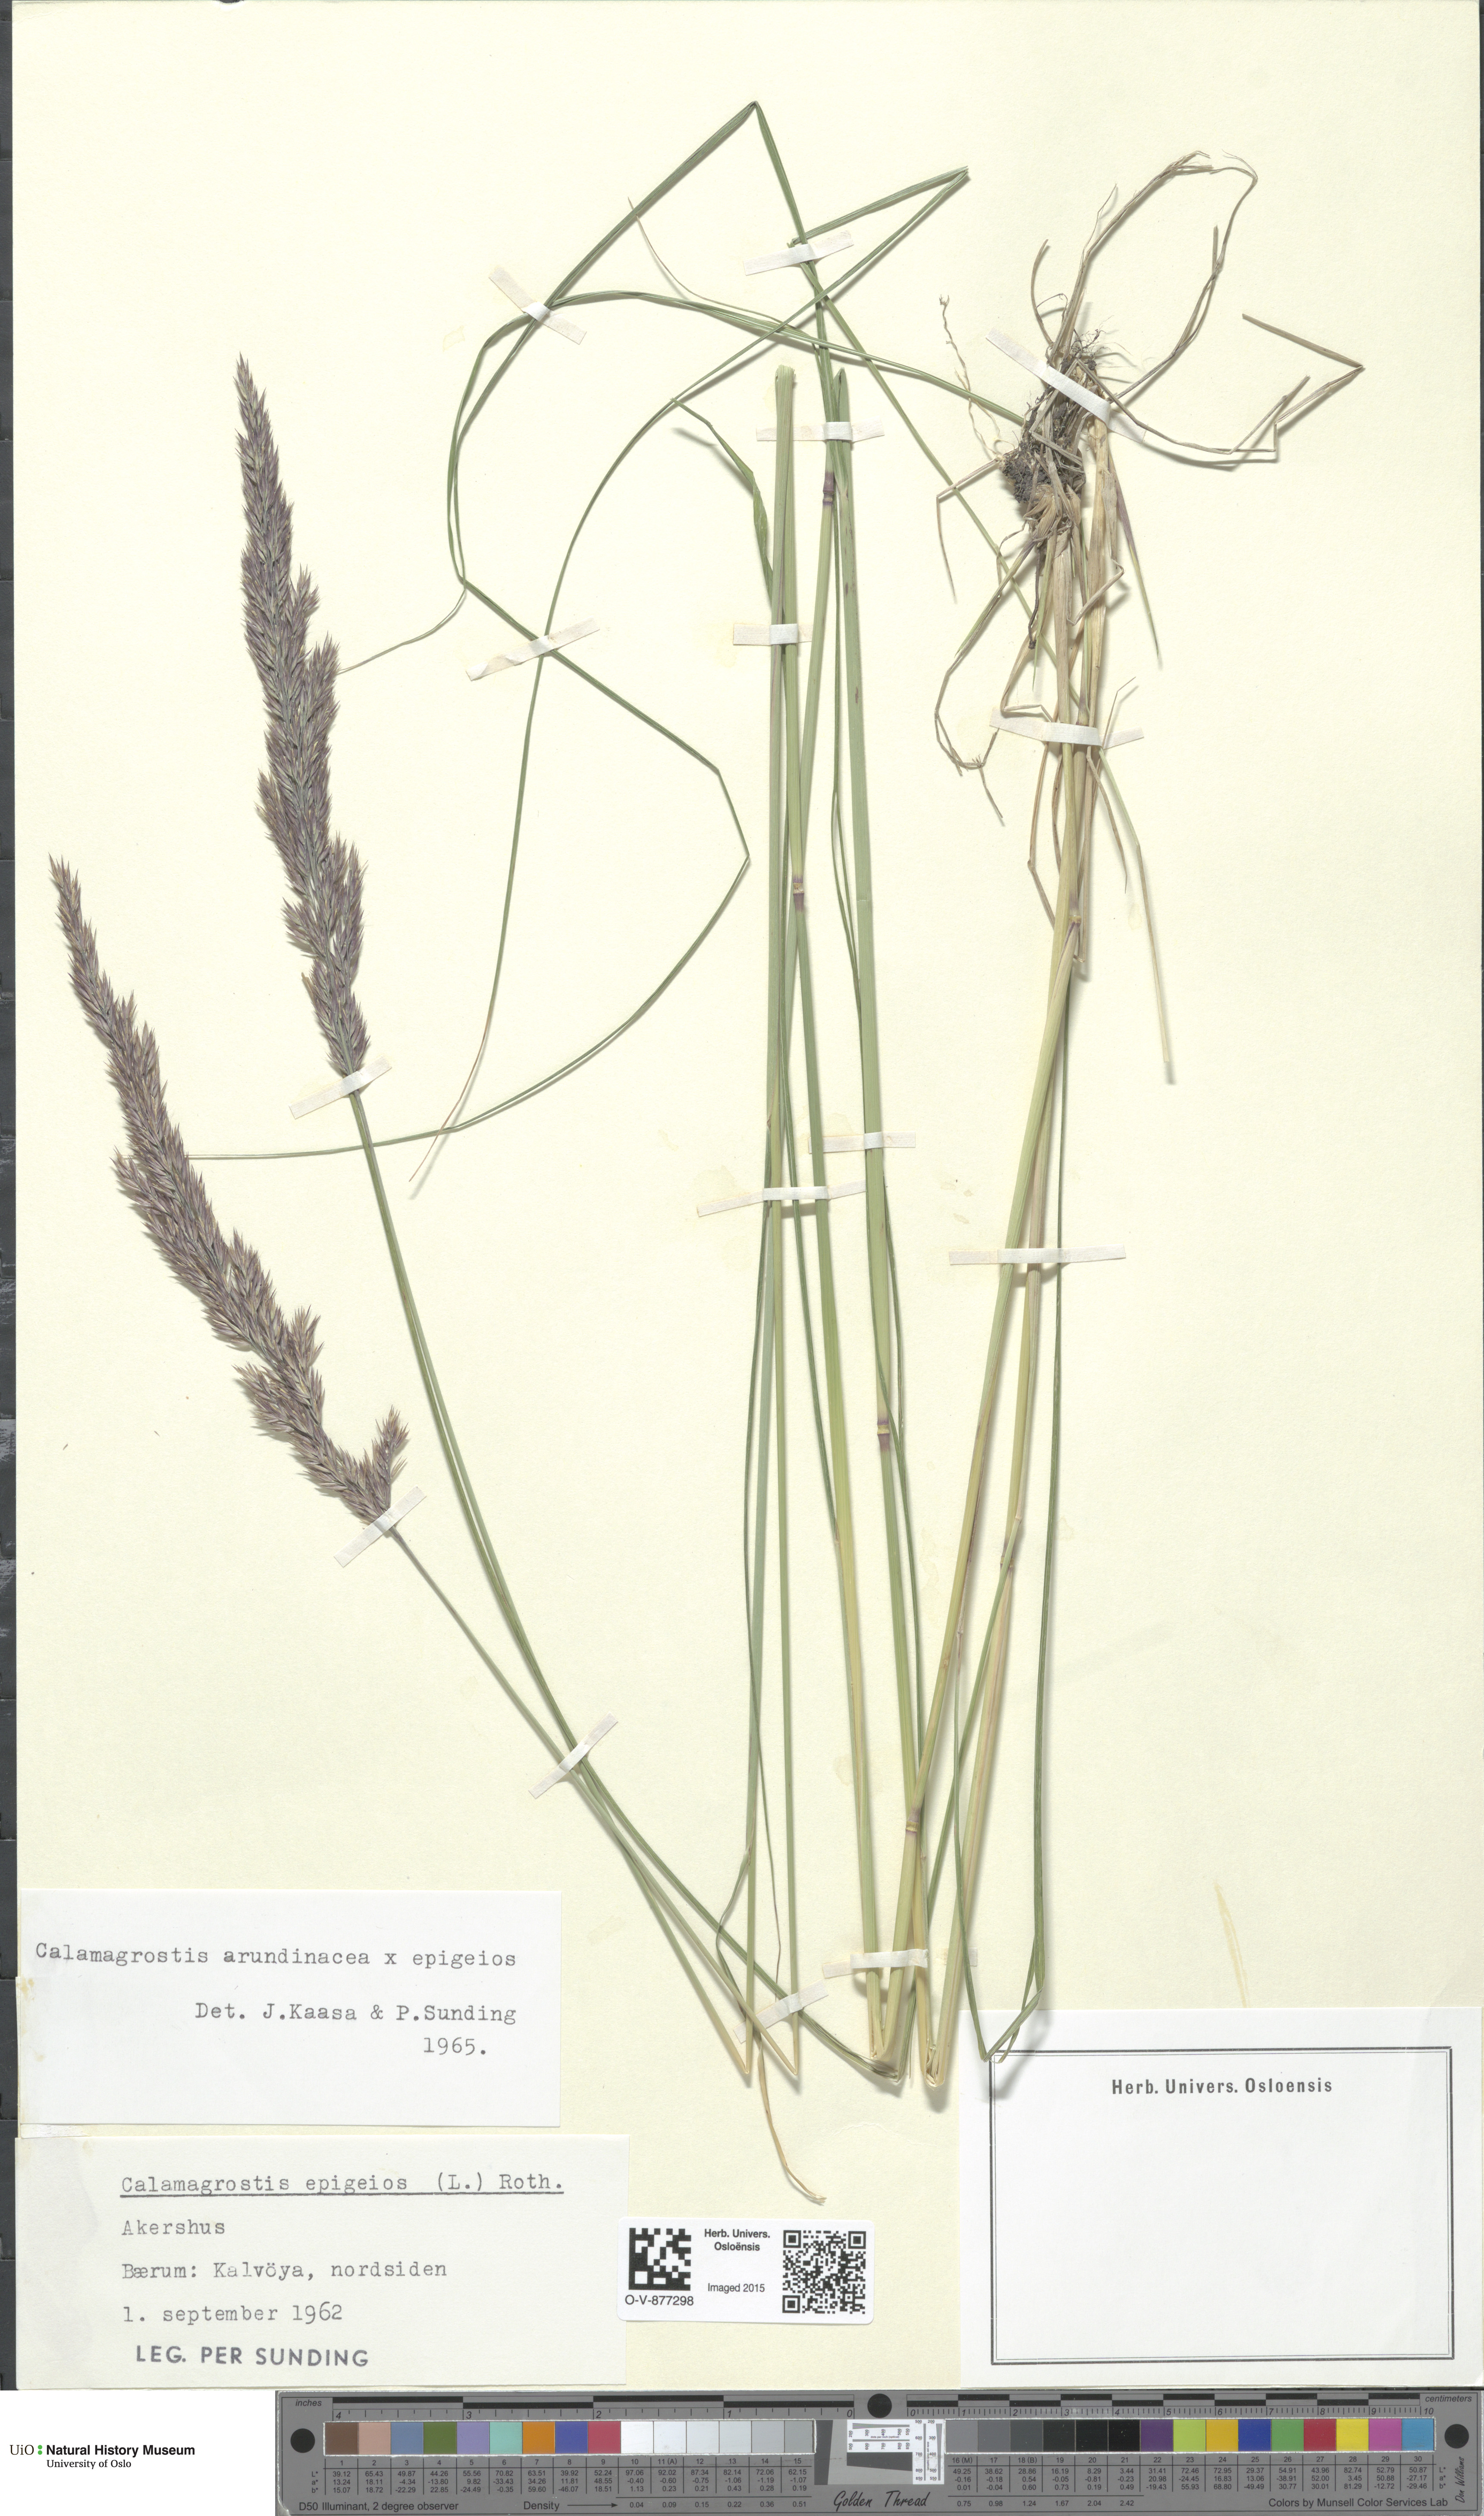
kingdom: Plantae
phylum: Tracheophyta
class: Liliopsida
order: Poales
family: Poaceae
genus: Calamagrostis
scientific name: Calamagrostis
